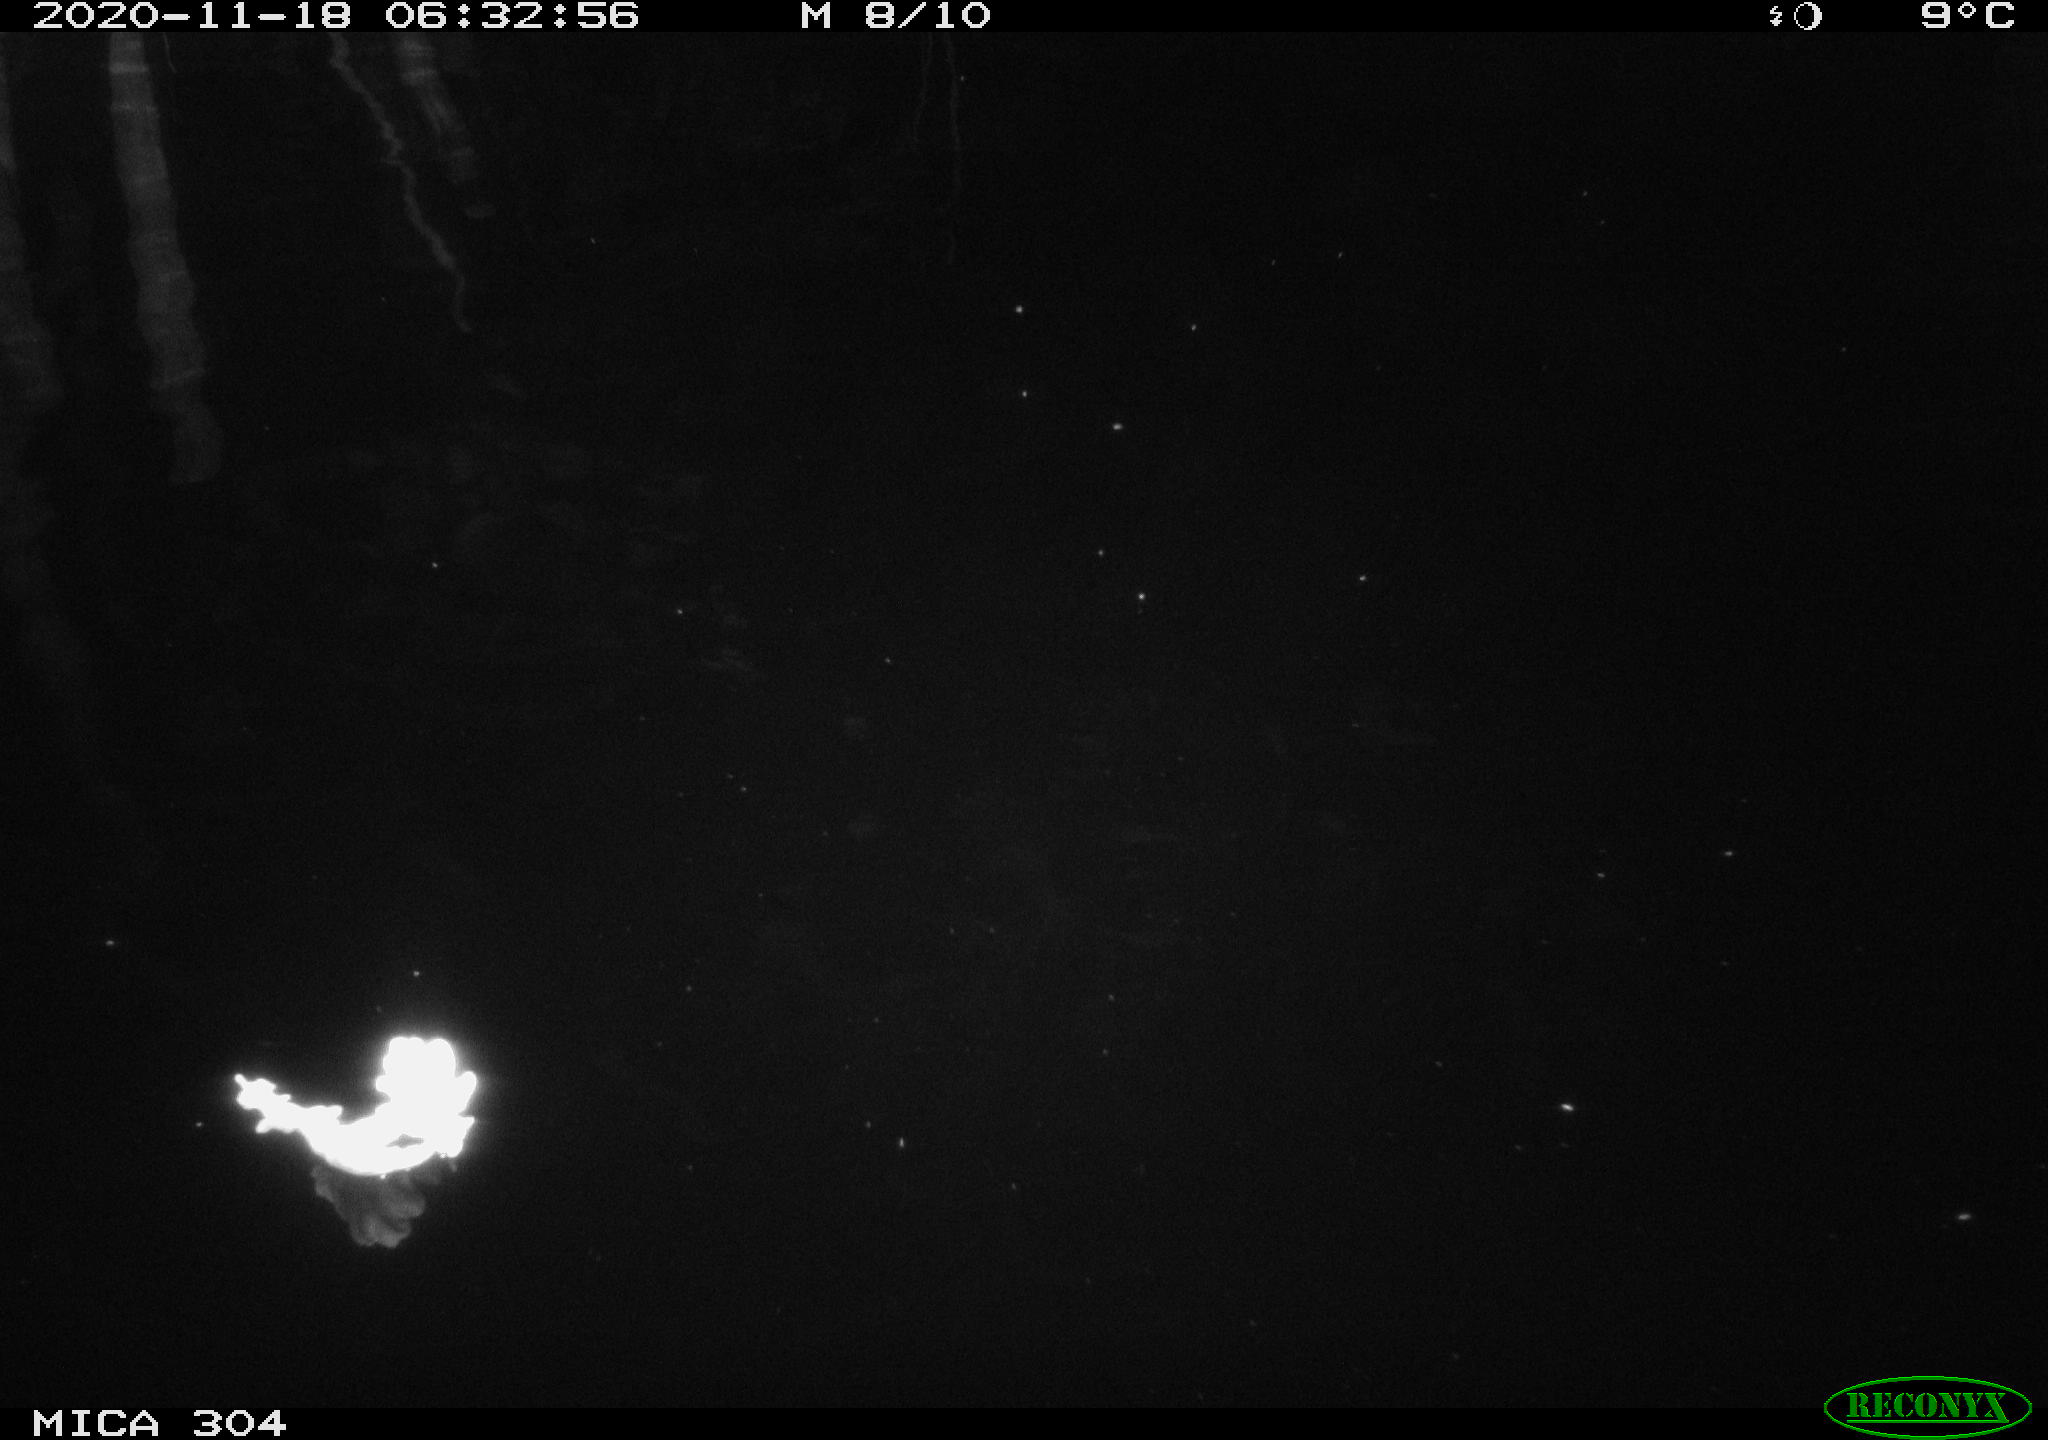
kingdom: Animalia
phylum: Chordata
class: Aves
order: Anseriformes
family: Anatidae
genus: Anas
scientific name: Anas platyrhynchos
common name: Mallard
